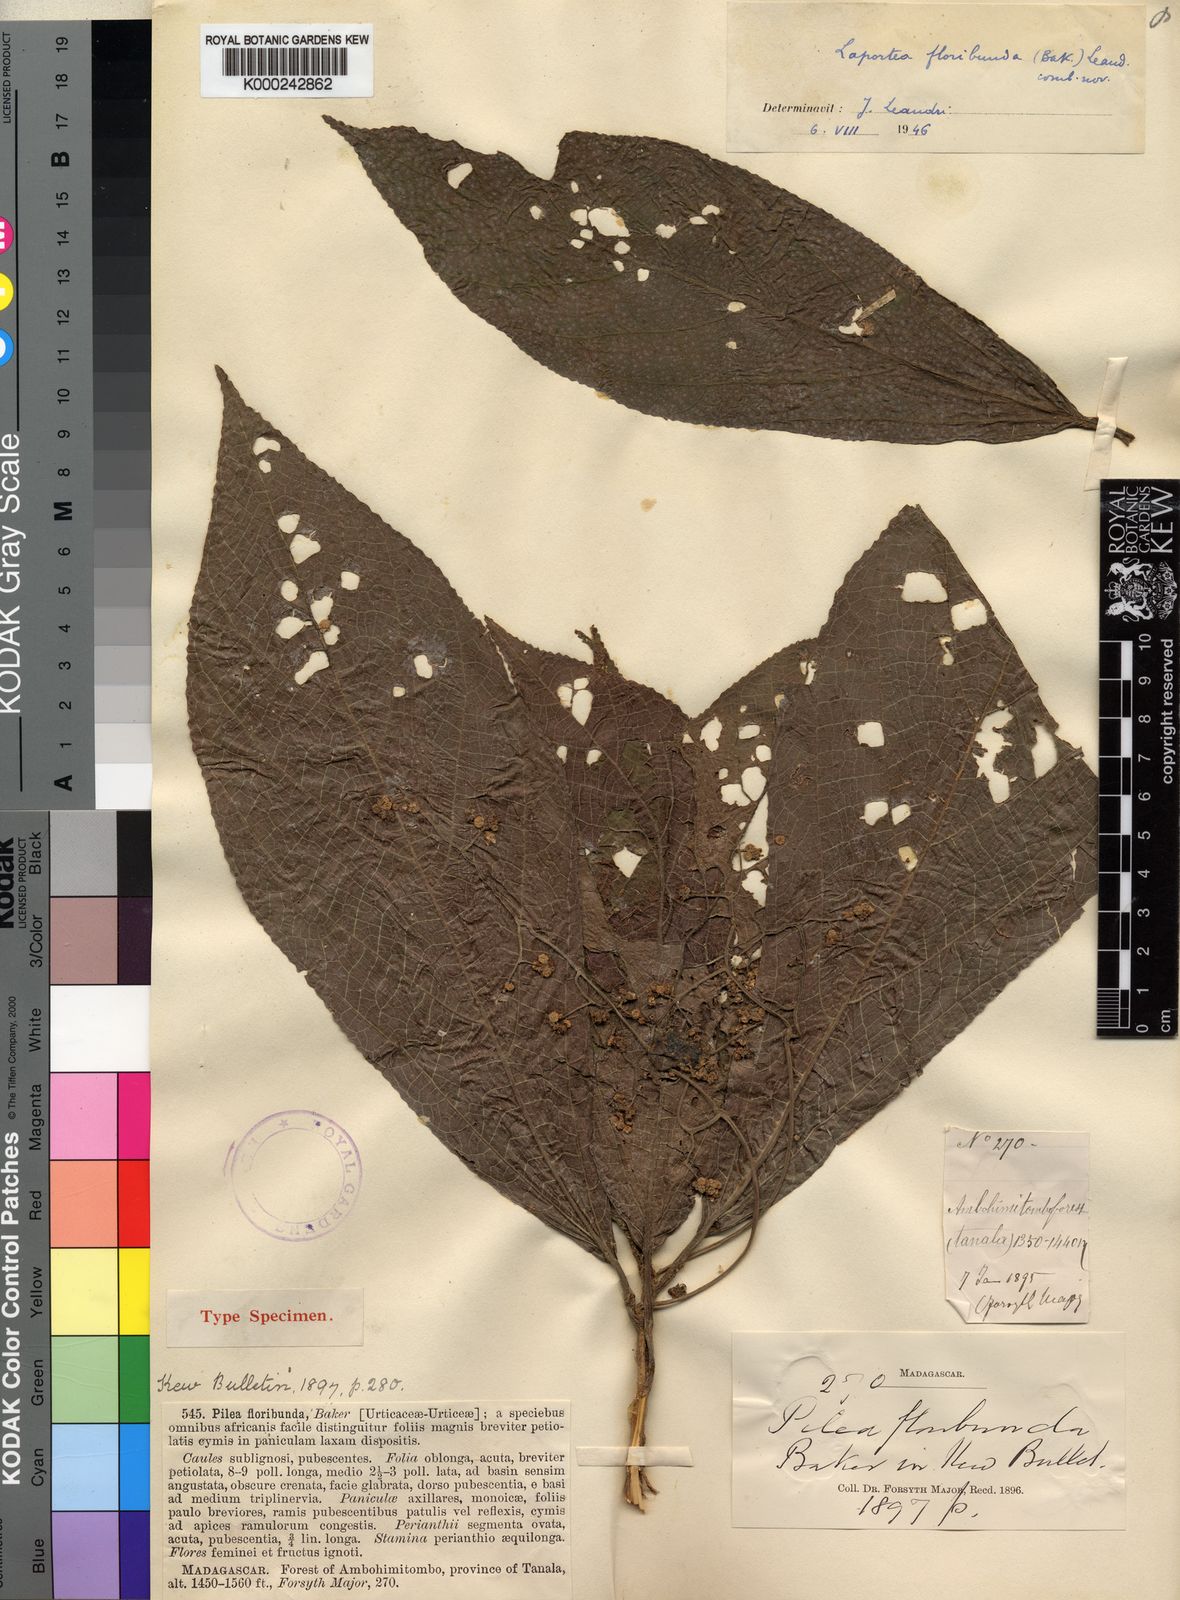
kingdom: Plantae
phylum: Tracheophyta
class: Magnoliopsida
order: Rosales
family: Urticaceae
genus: Laportea
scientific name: Laportea floribunda
